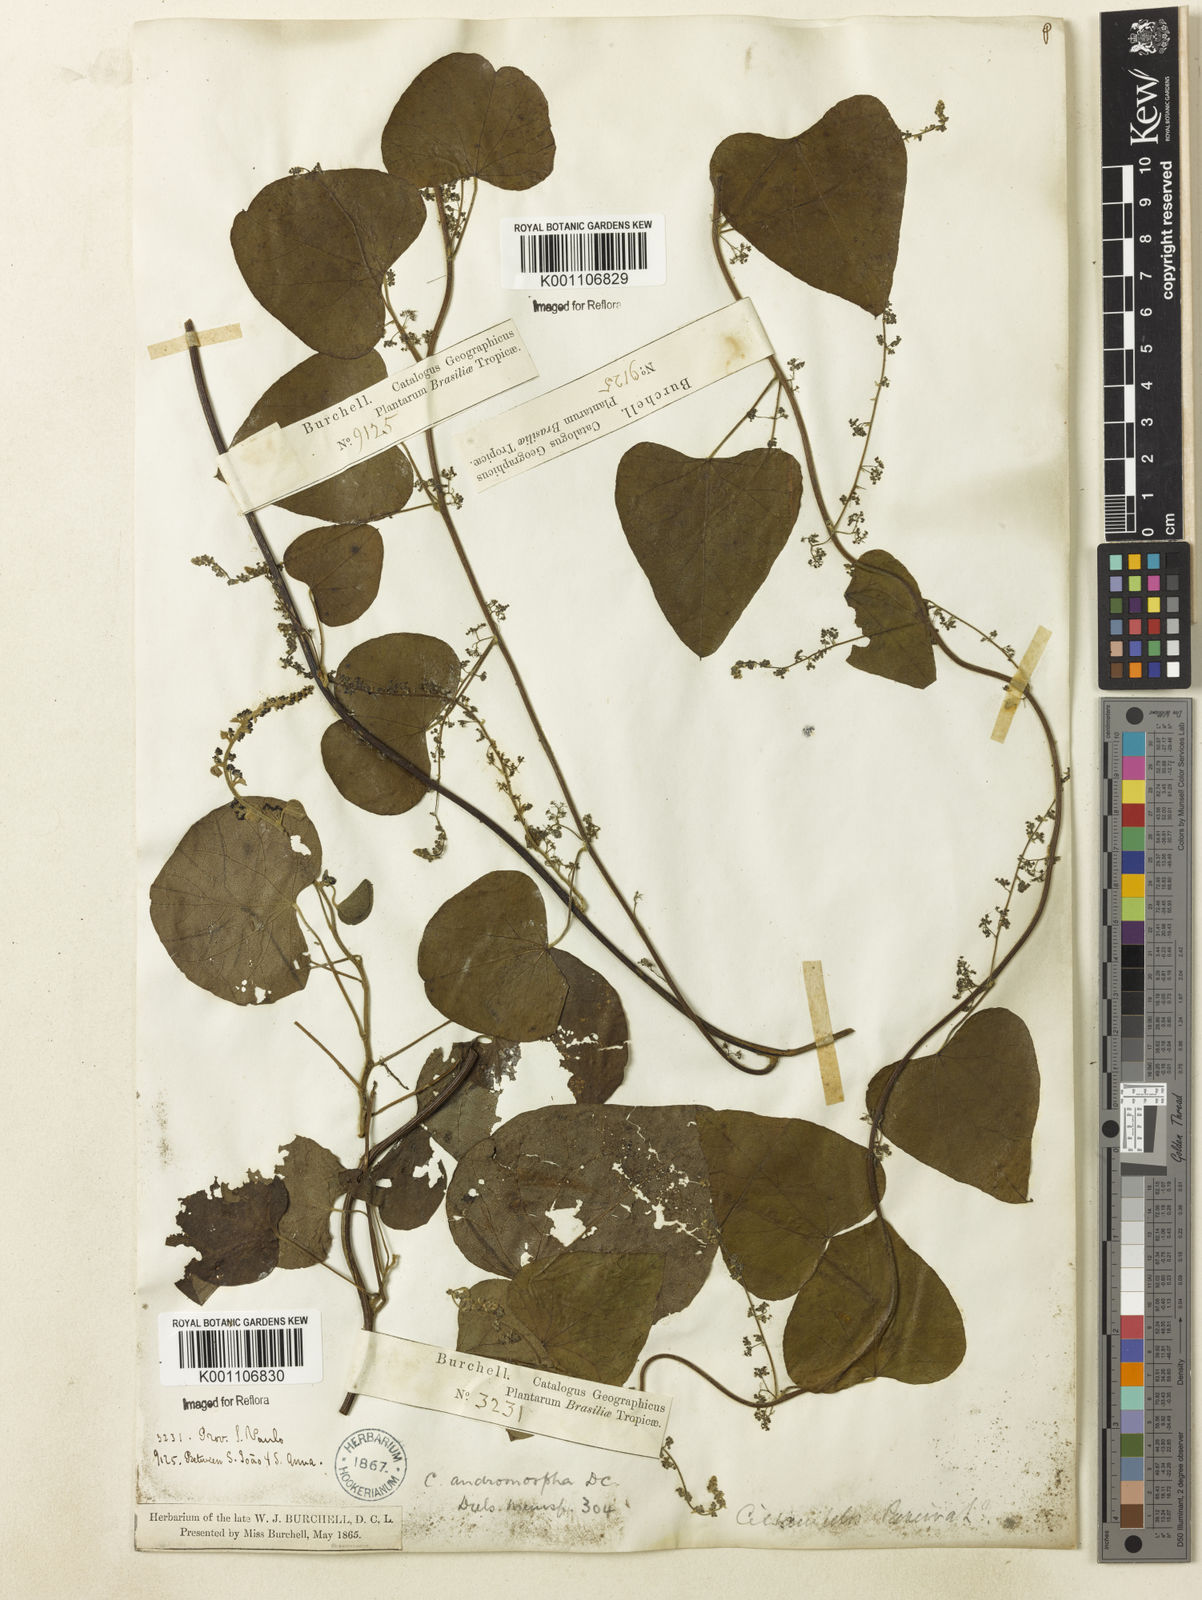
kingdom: Plantae
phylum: Tracheophyta
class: Magnoliopsida
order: Ranunculales
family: Menispermaceae
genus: Cissampelos
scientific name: Cissampelos andromorpha
